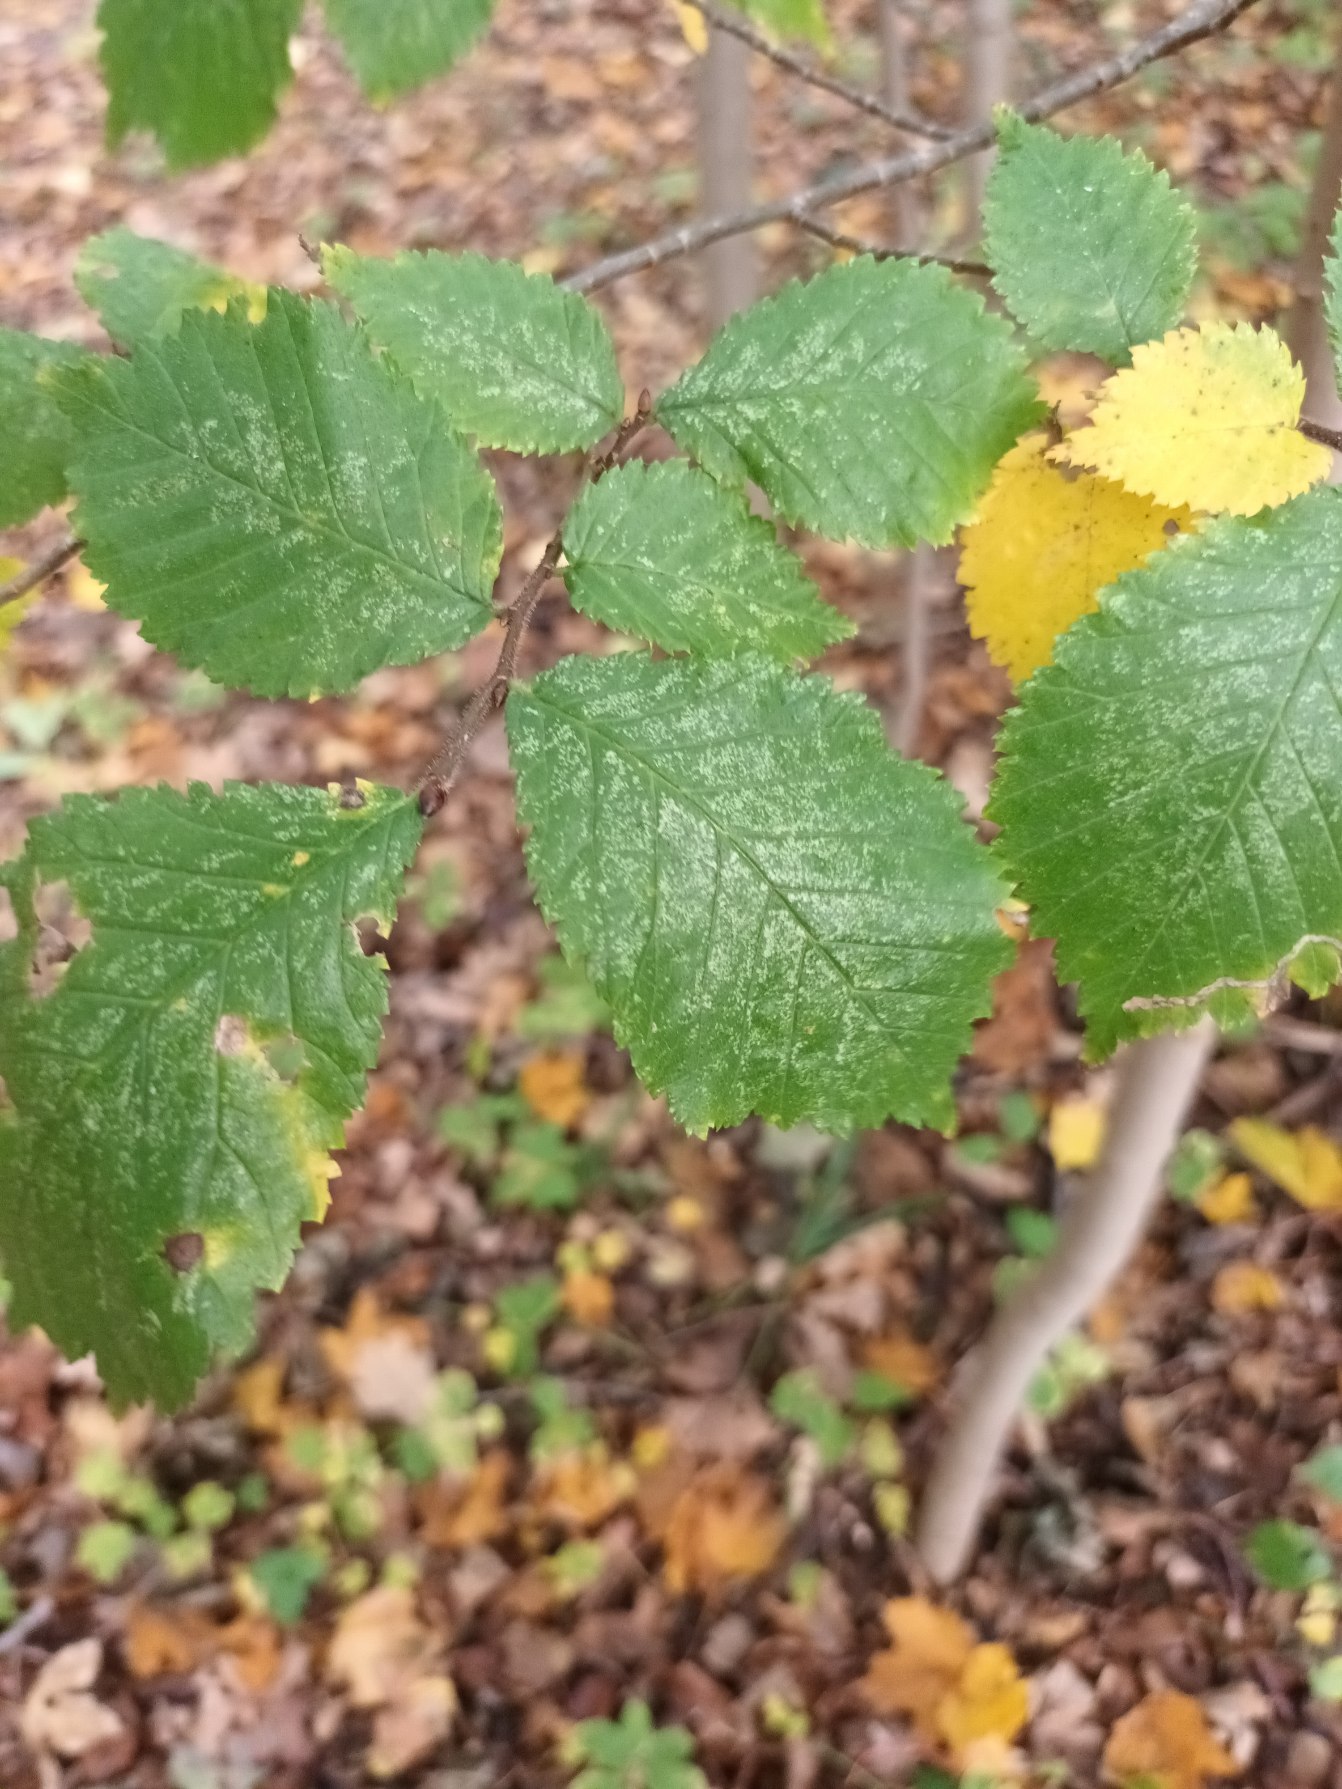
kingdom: Plantae
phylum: Tracheophyta
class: Magnoliopsida
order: Rosales
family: Ulmaceae
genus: Ulmus
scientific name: Ulmus glabra
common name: Skov-elm/storbladet elm
